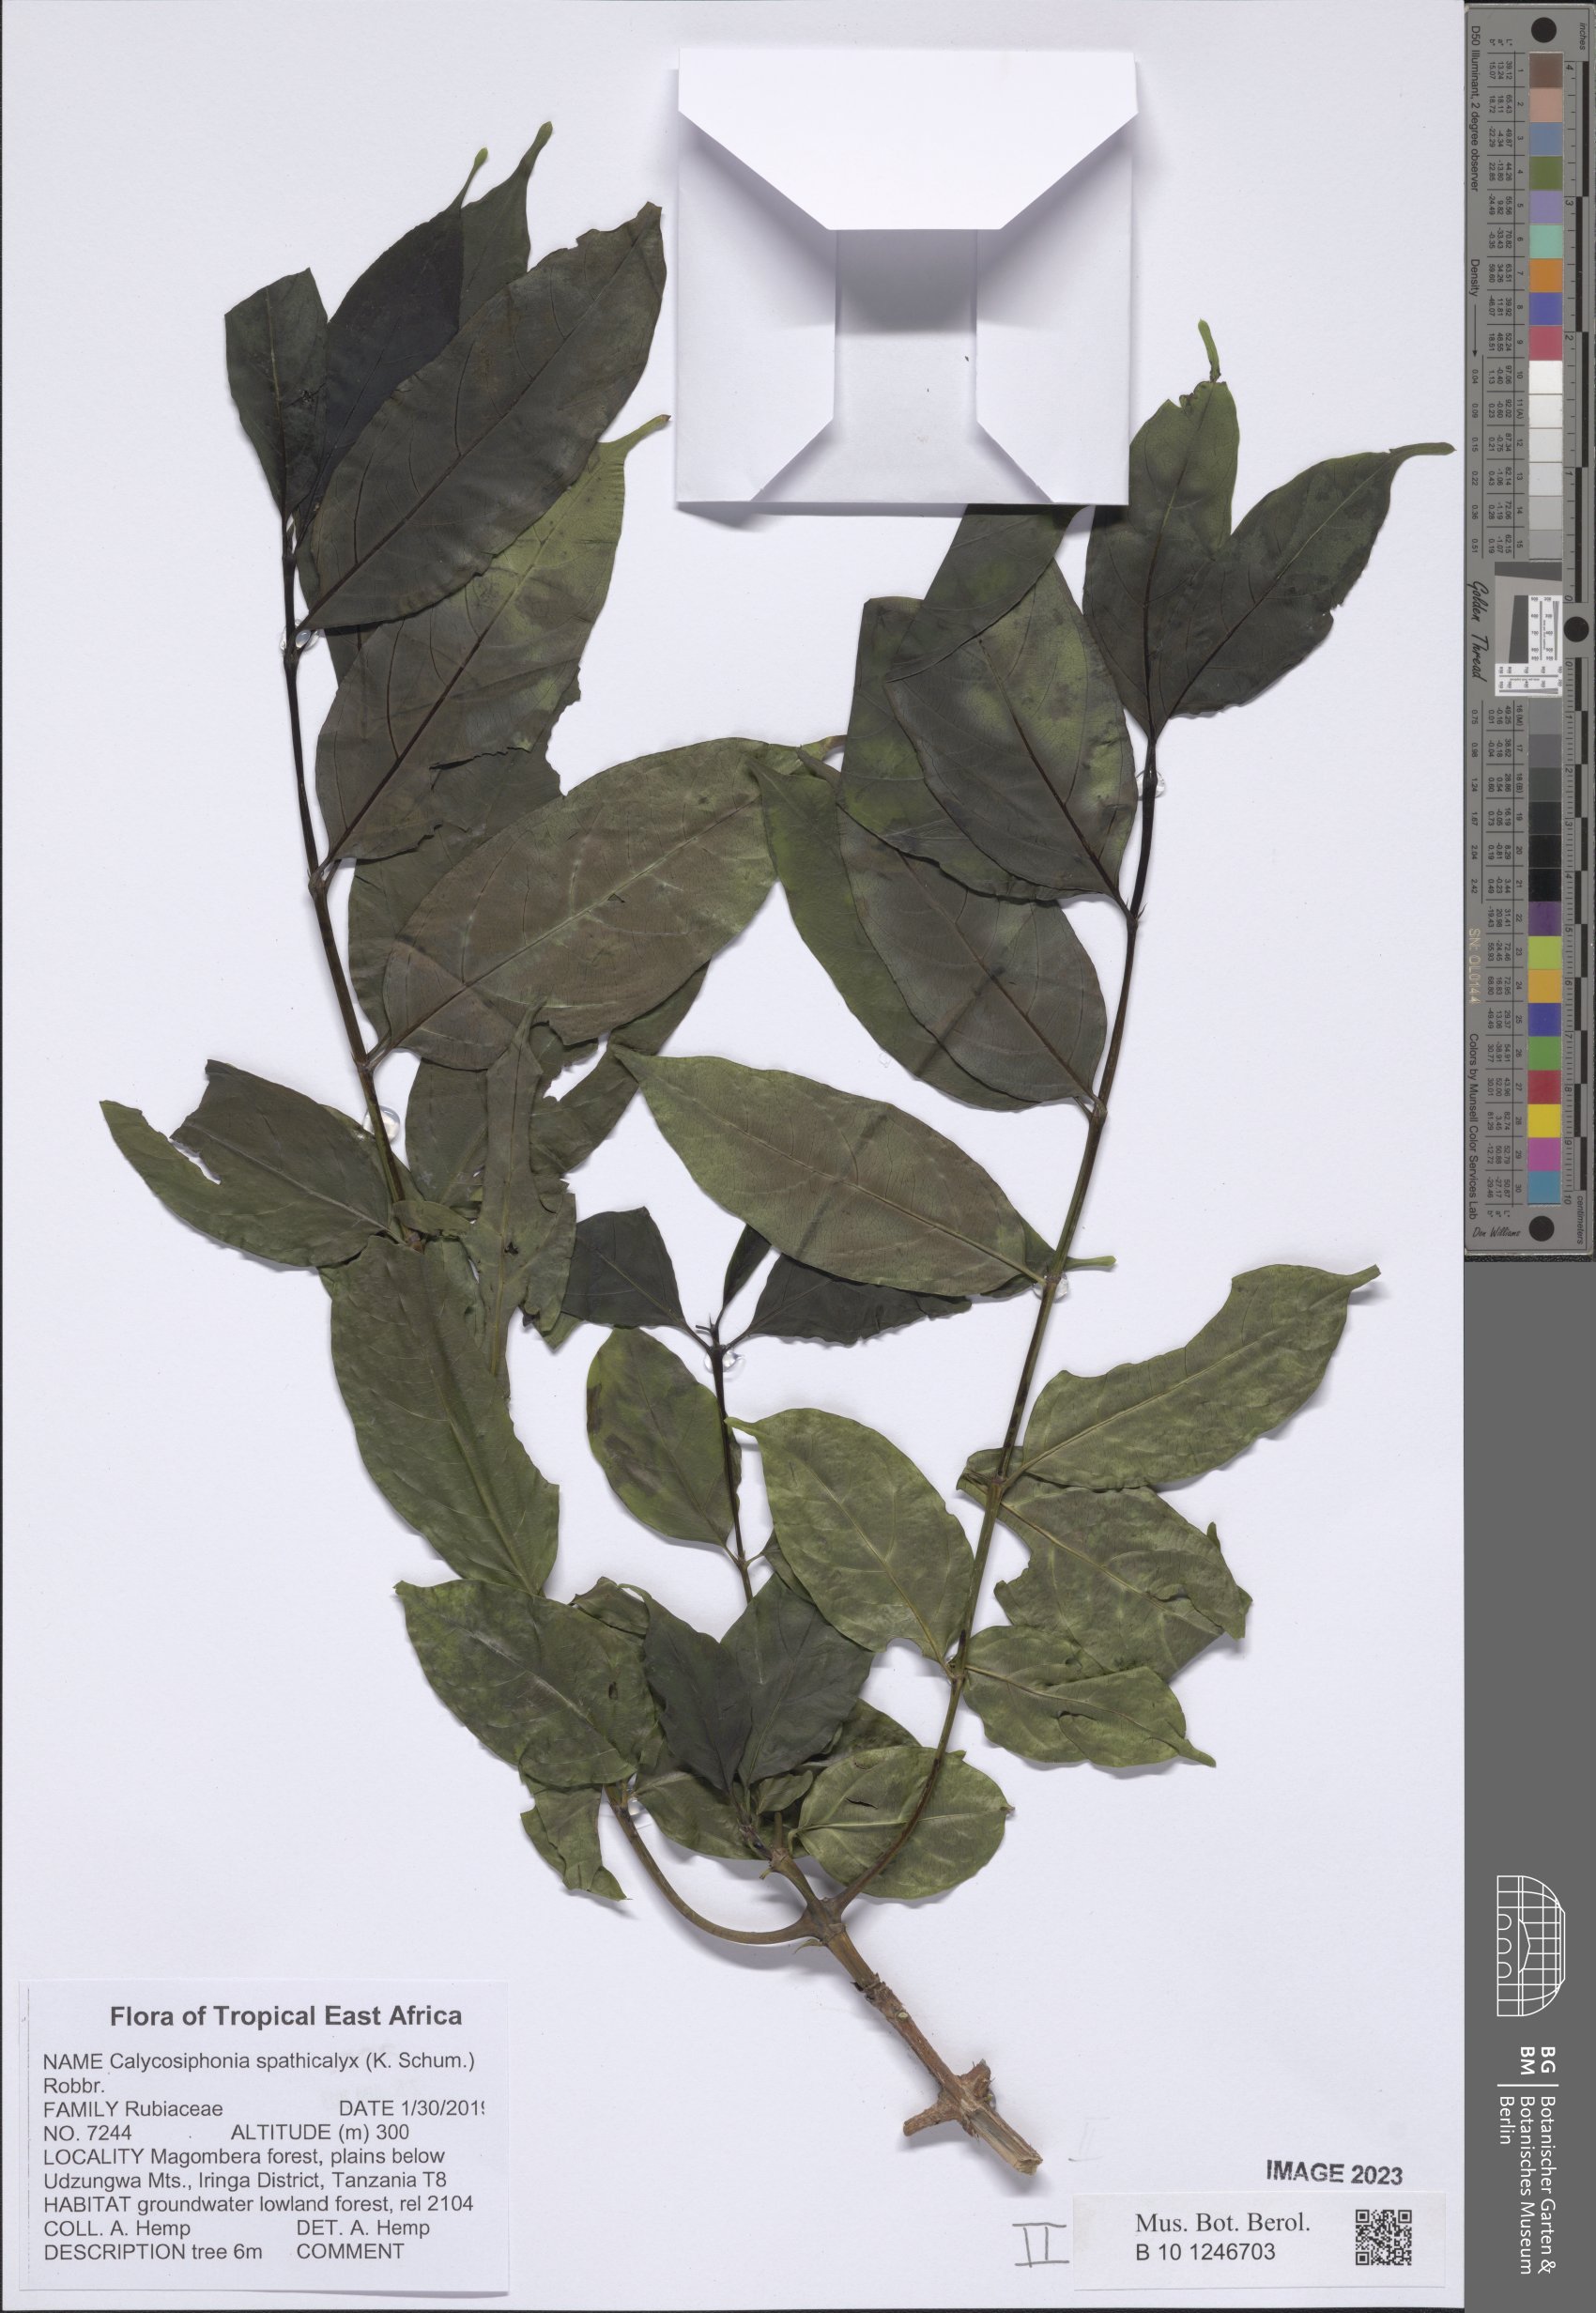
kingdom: Plantae
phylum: Tracheophyta
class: Magnoliopsida
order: Gentianales
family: Rubiaceae
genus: Calycosiphonia
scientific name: Calycosiphonia spathicalyx
